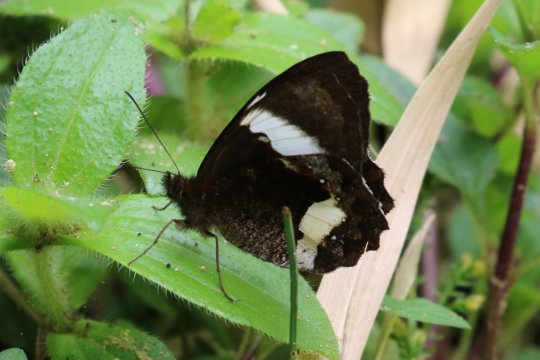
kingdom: Animalia
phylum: Arthropoda
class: Insecta
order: Lepidoptera
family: Nymphalidae
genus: Pedaliodes
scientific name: Pedaliodes phaedra
